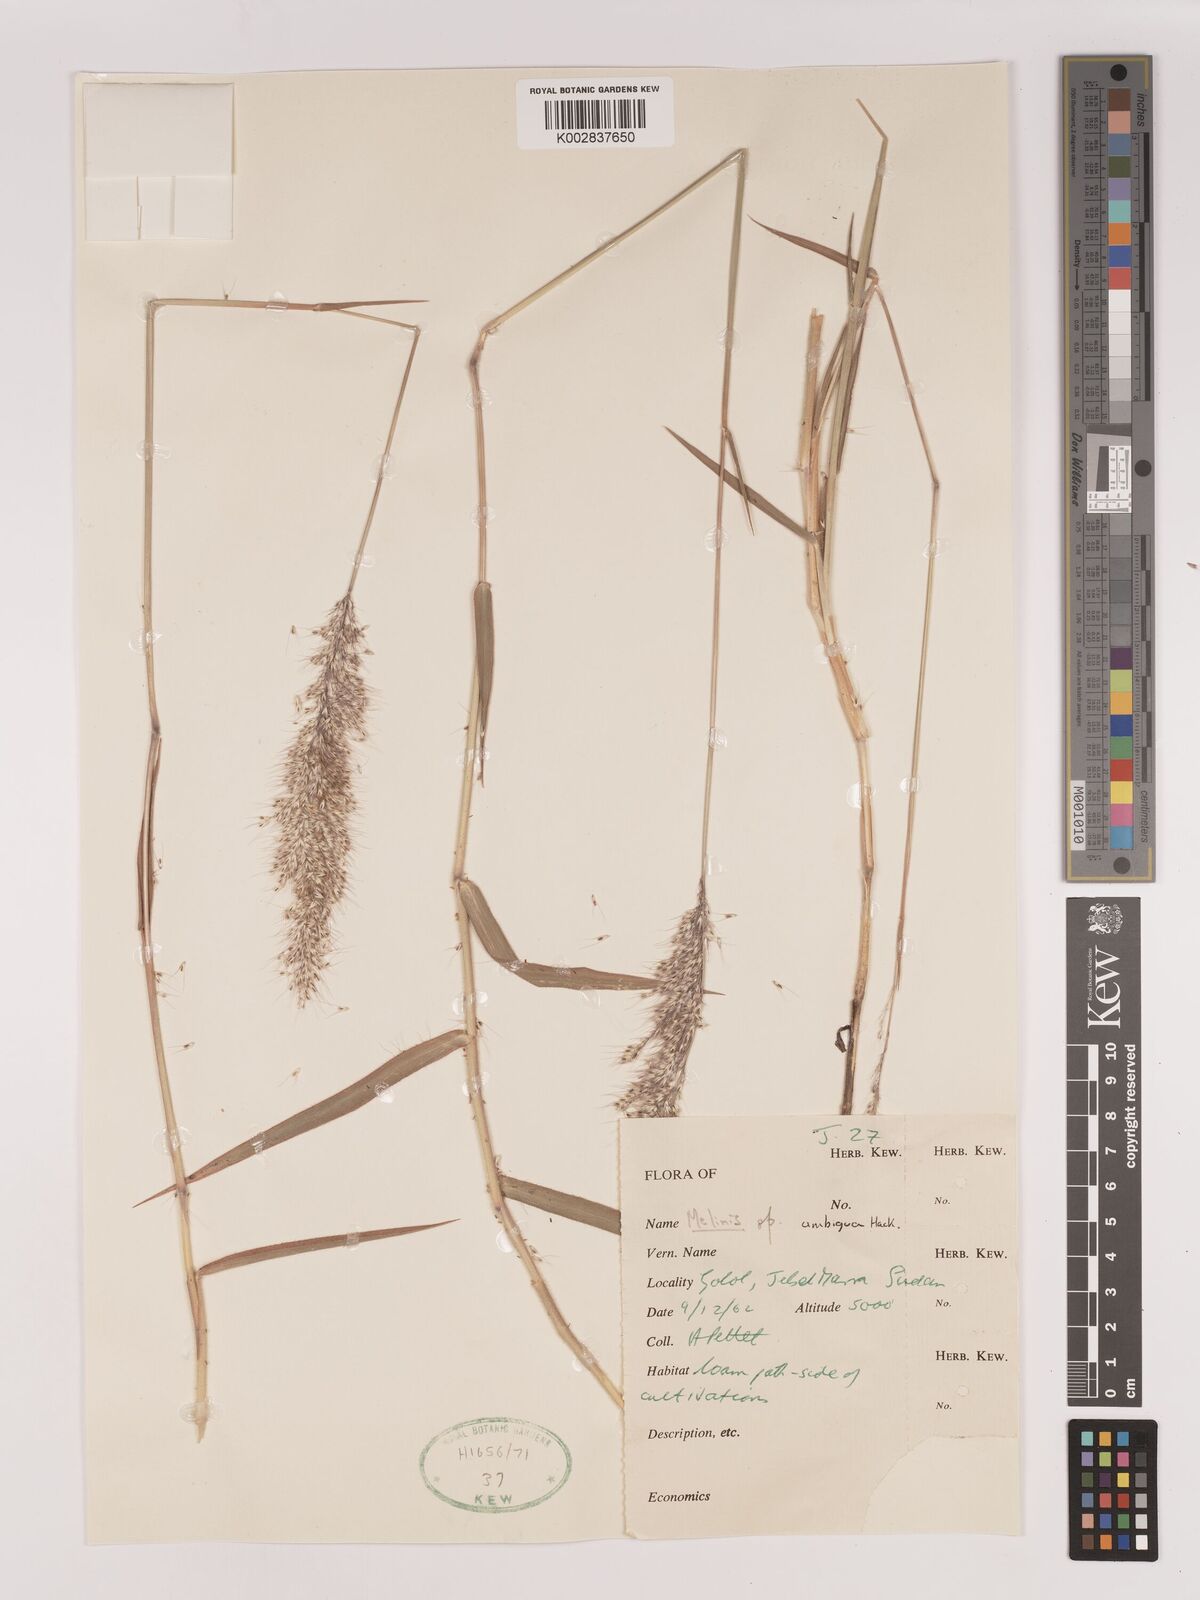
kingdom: Plantae
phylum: Tracheophyta
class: Liliopsida
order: Poales
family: Poaceae
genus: Melinis
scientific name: Melinis longiseta
